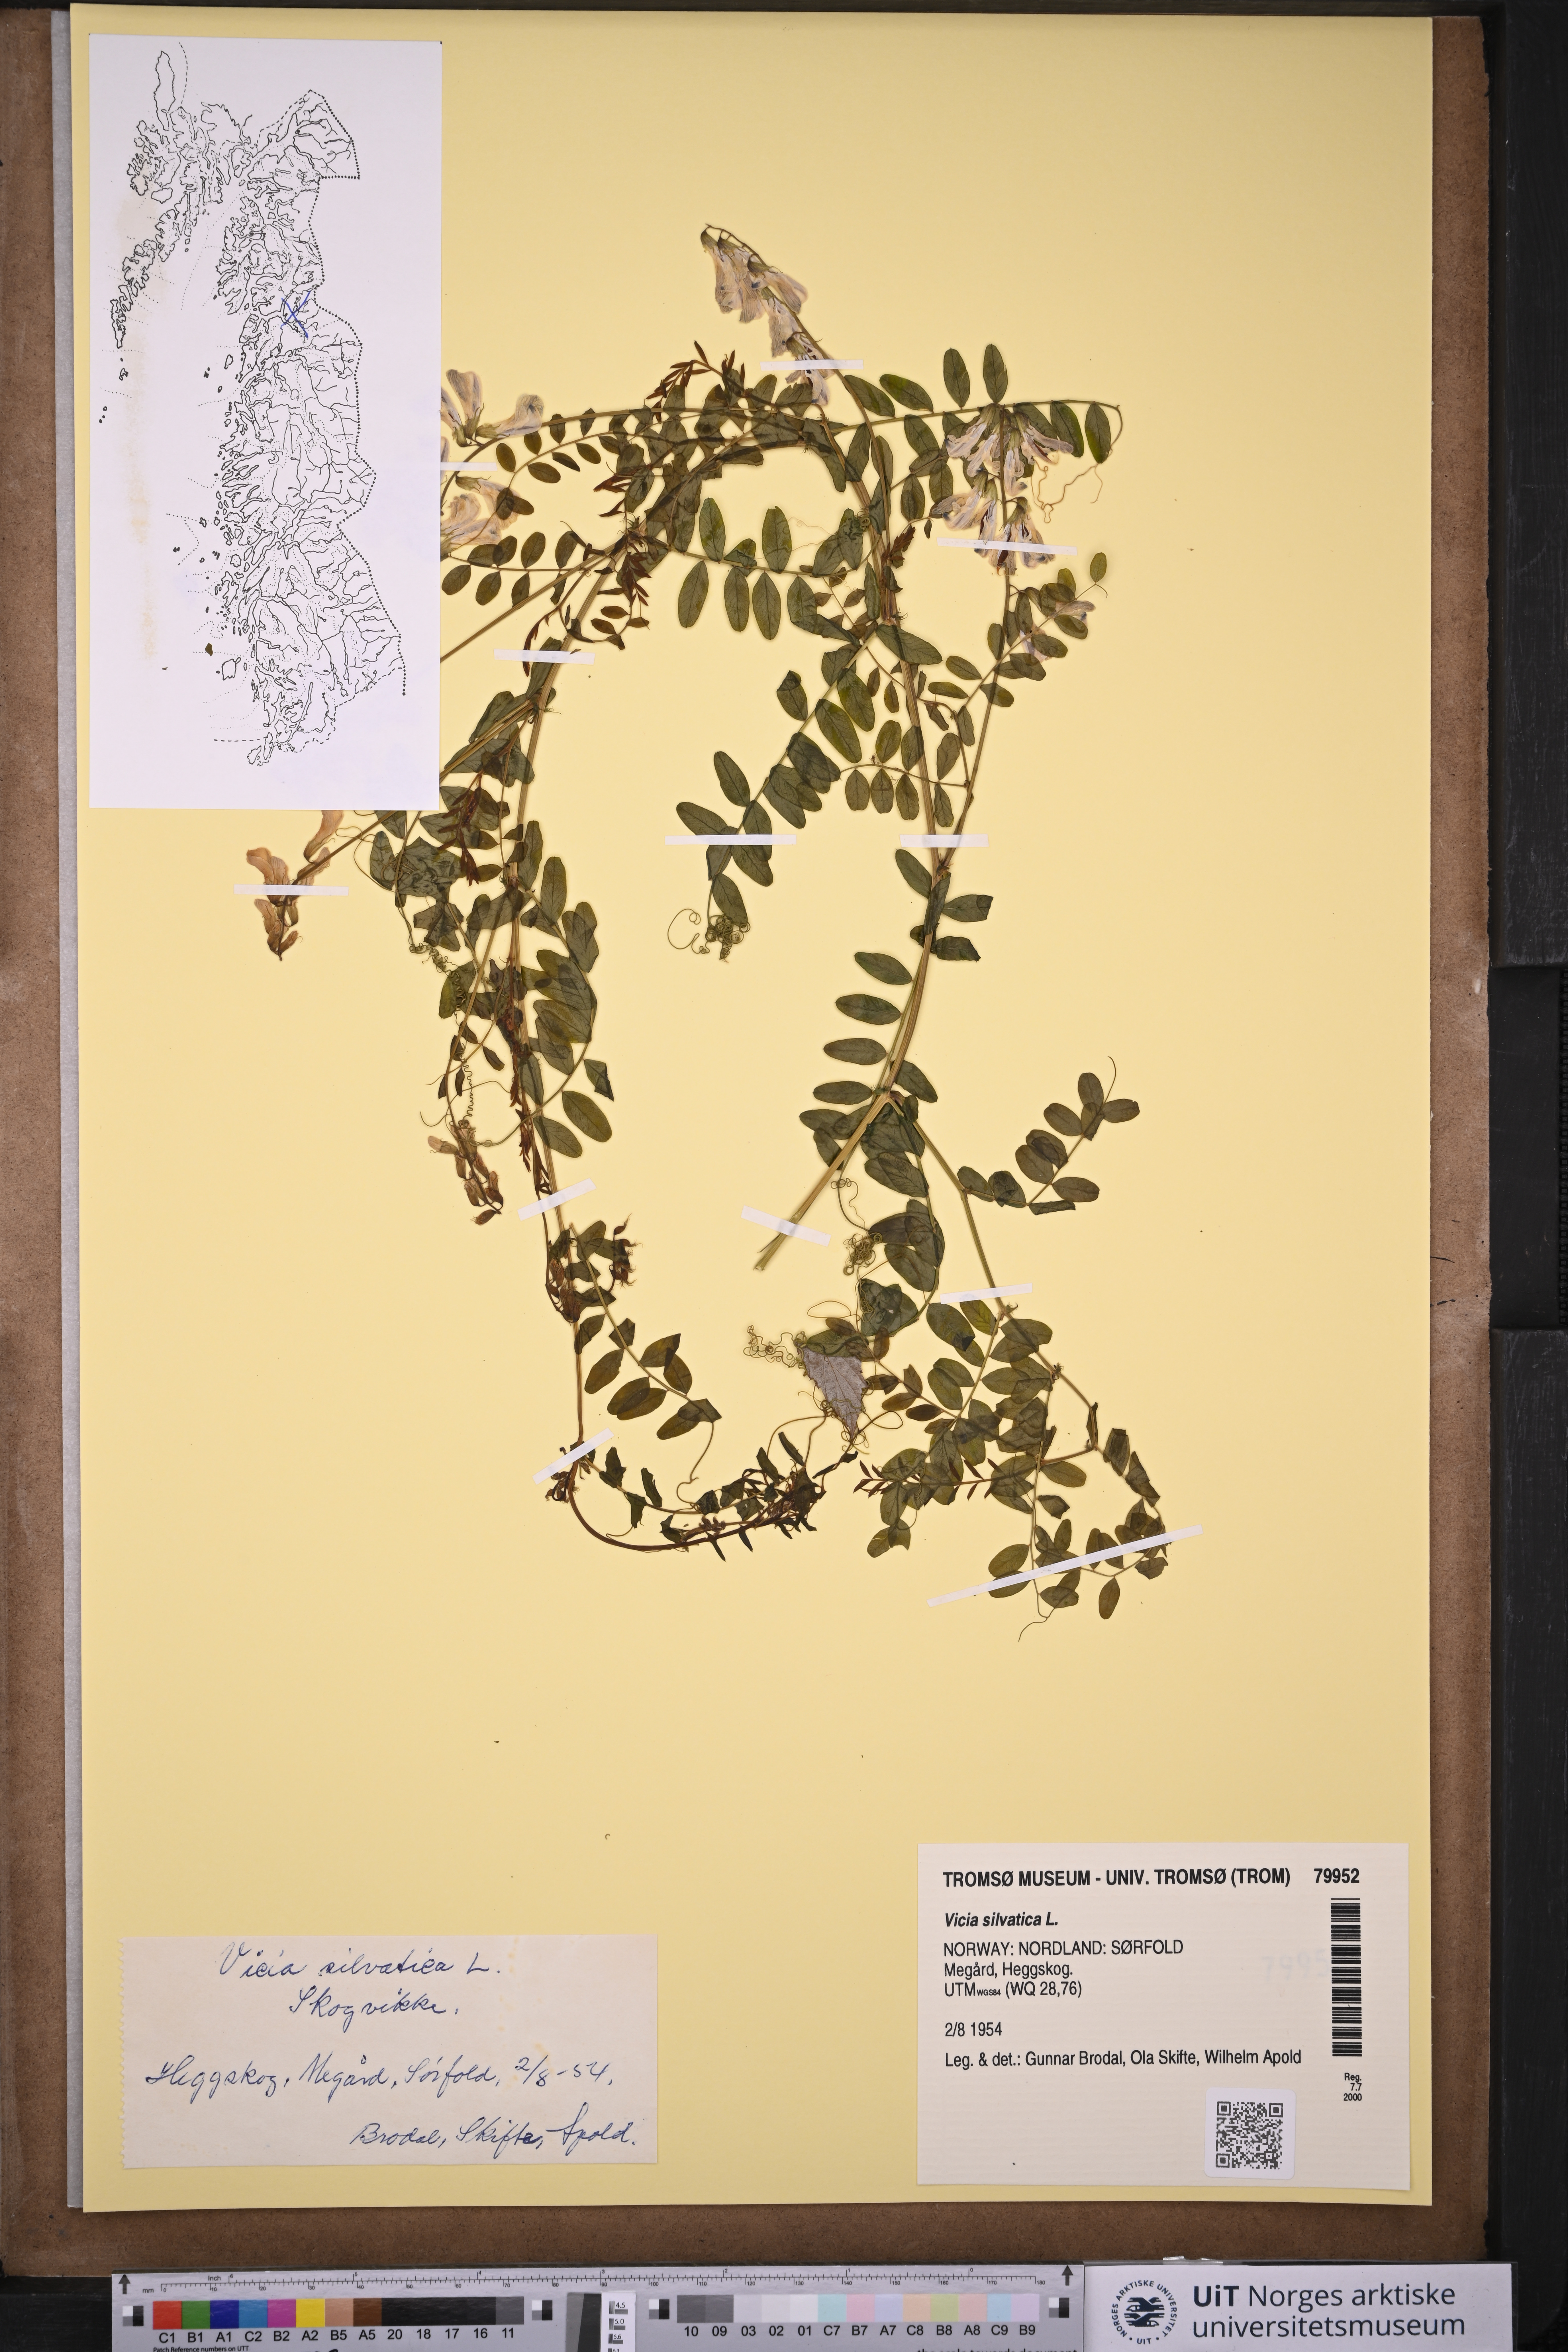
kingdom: Plantae
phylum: Tracheophyta
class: Magnoliopsida
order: Fabales
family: Fabaceae
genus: Vicia
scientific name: Vicia sylvatica
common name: Wood vetch
